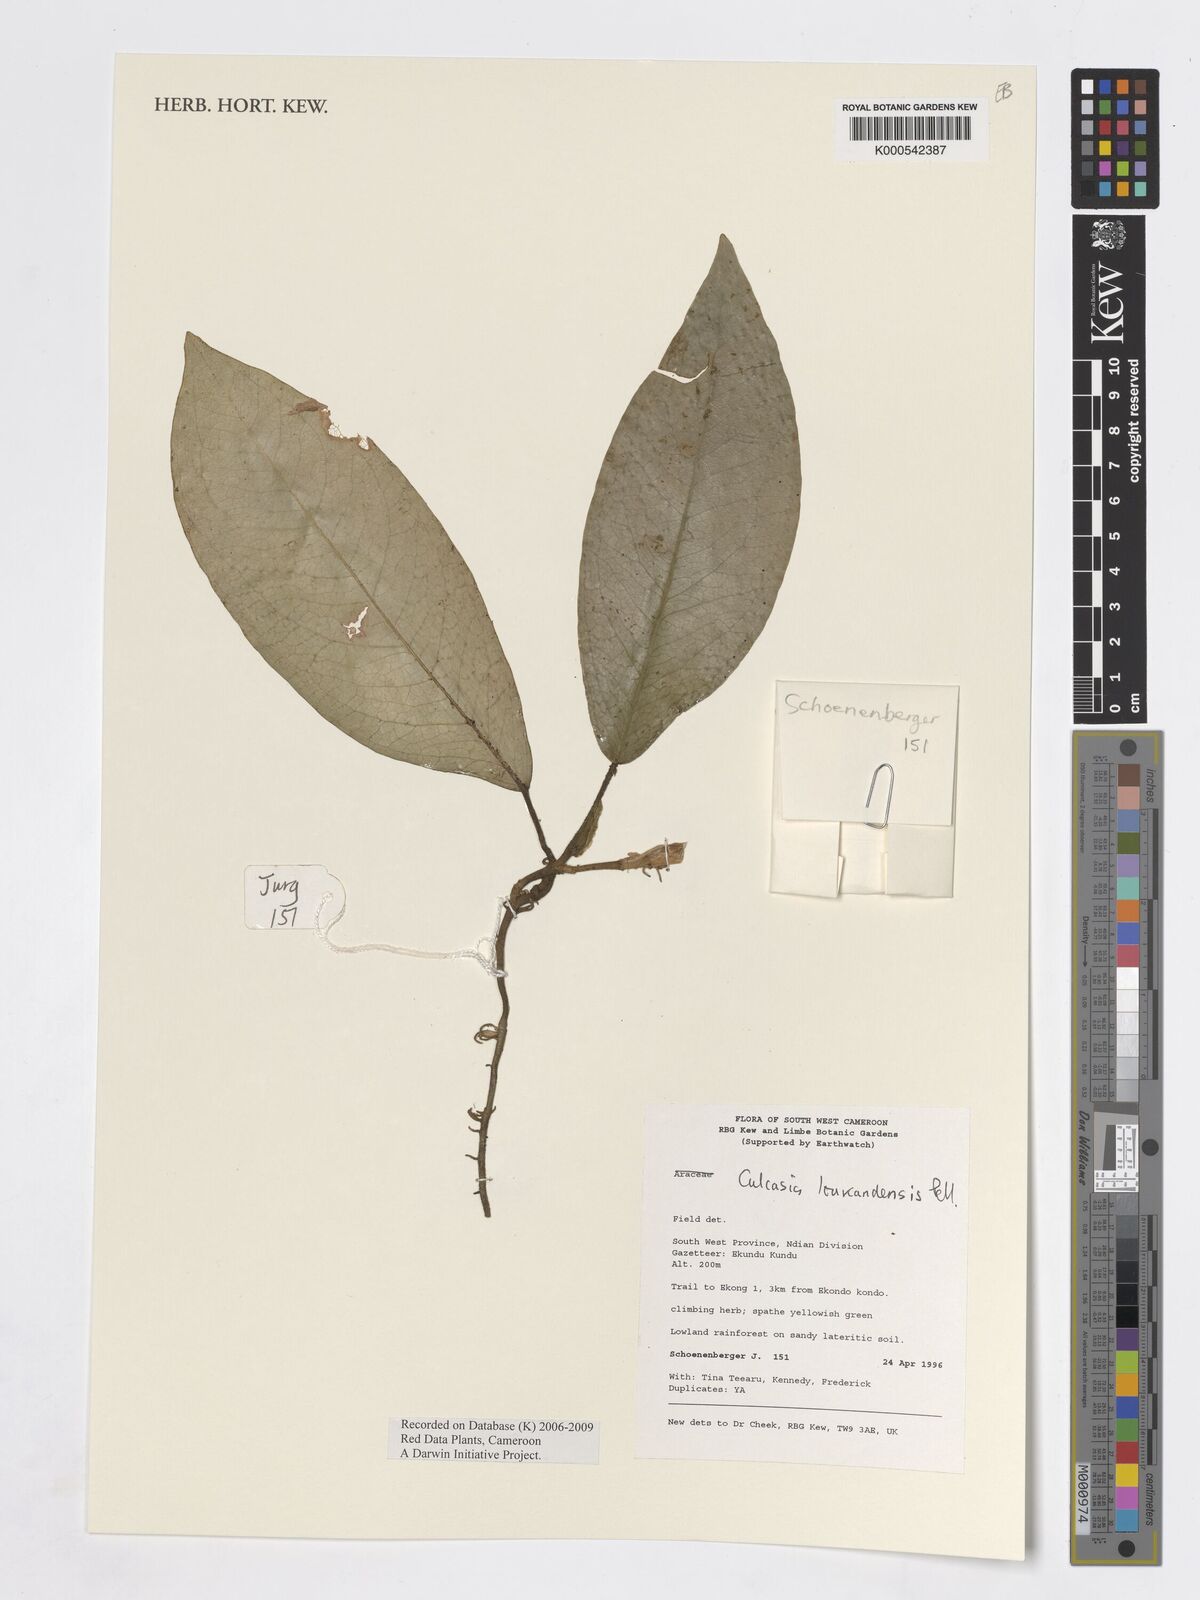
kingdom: Plantae
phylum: Tracheophyta
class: Liliopsida
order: Alismatales
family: Araceae
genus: Culcasia
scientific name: Culcasia loukandensis
